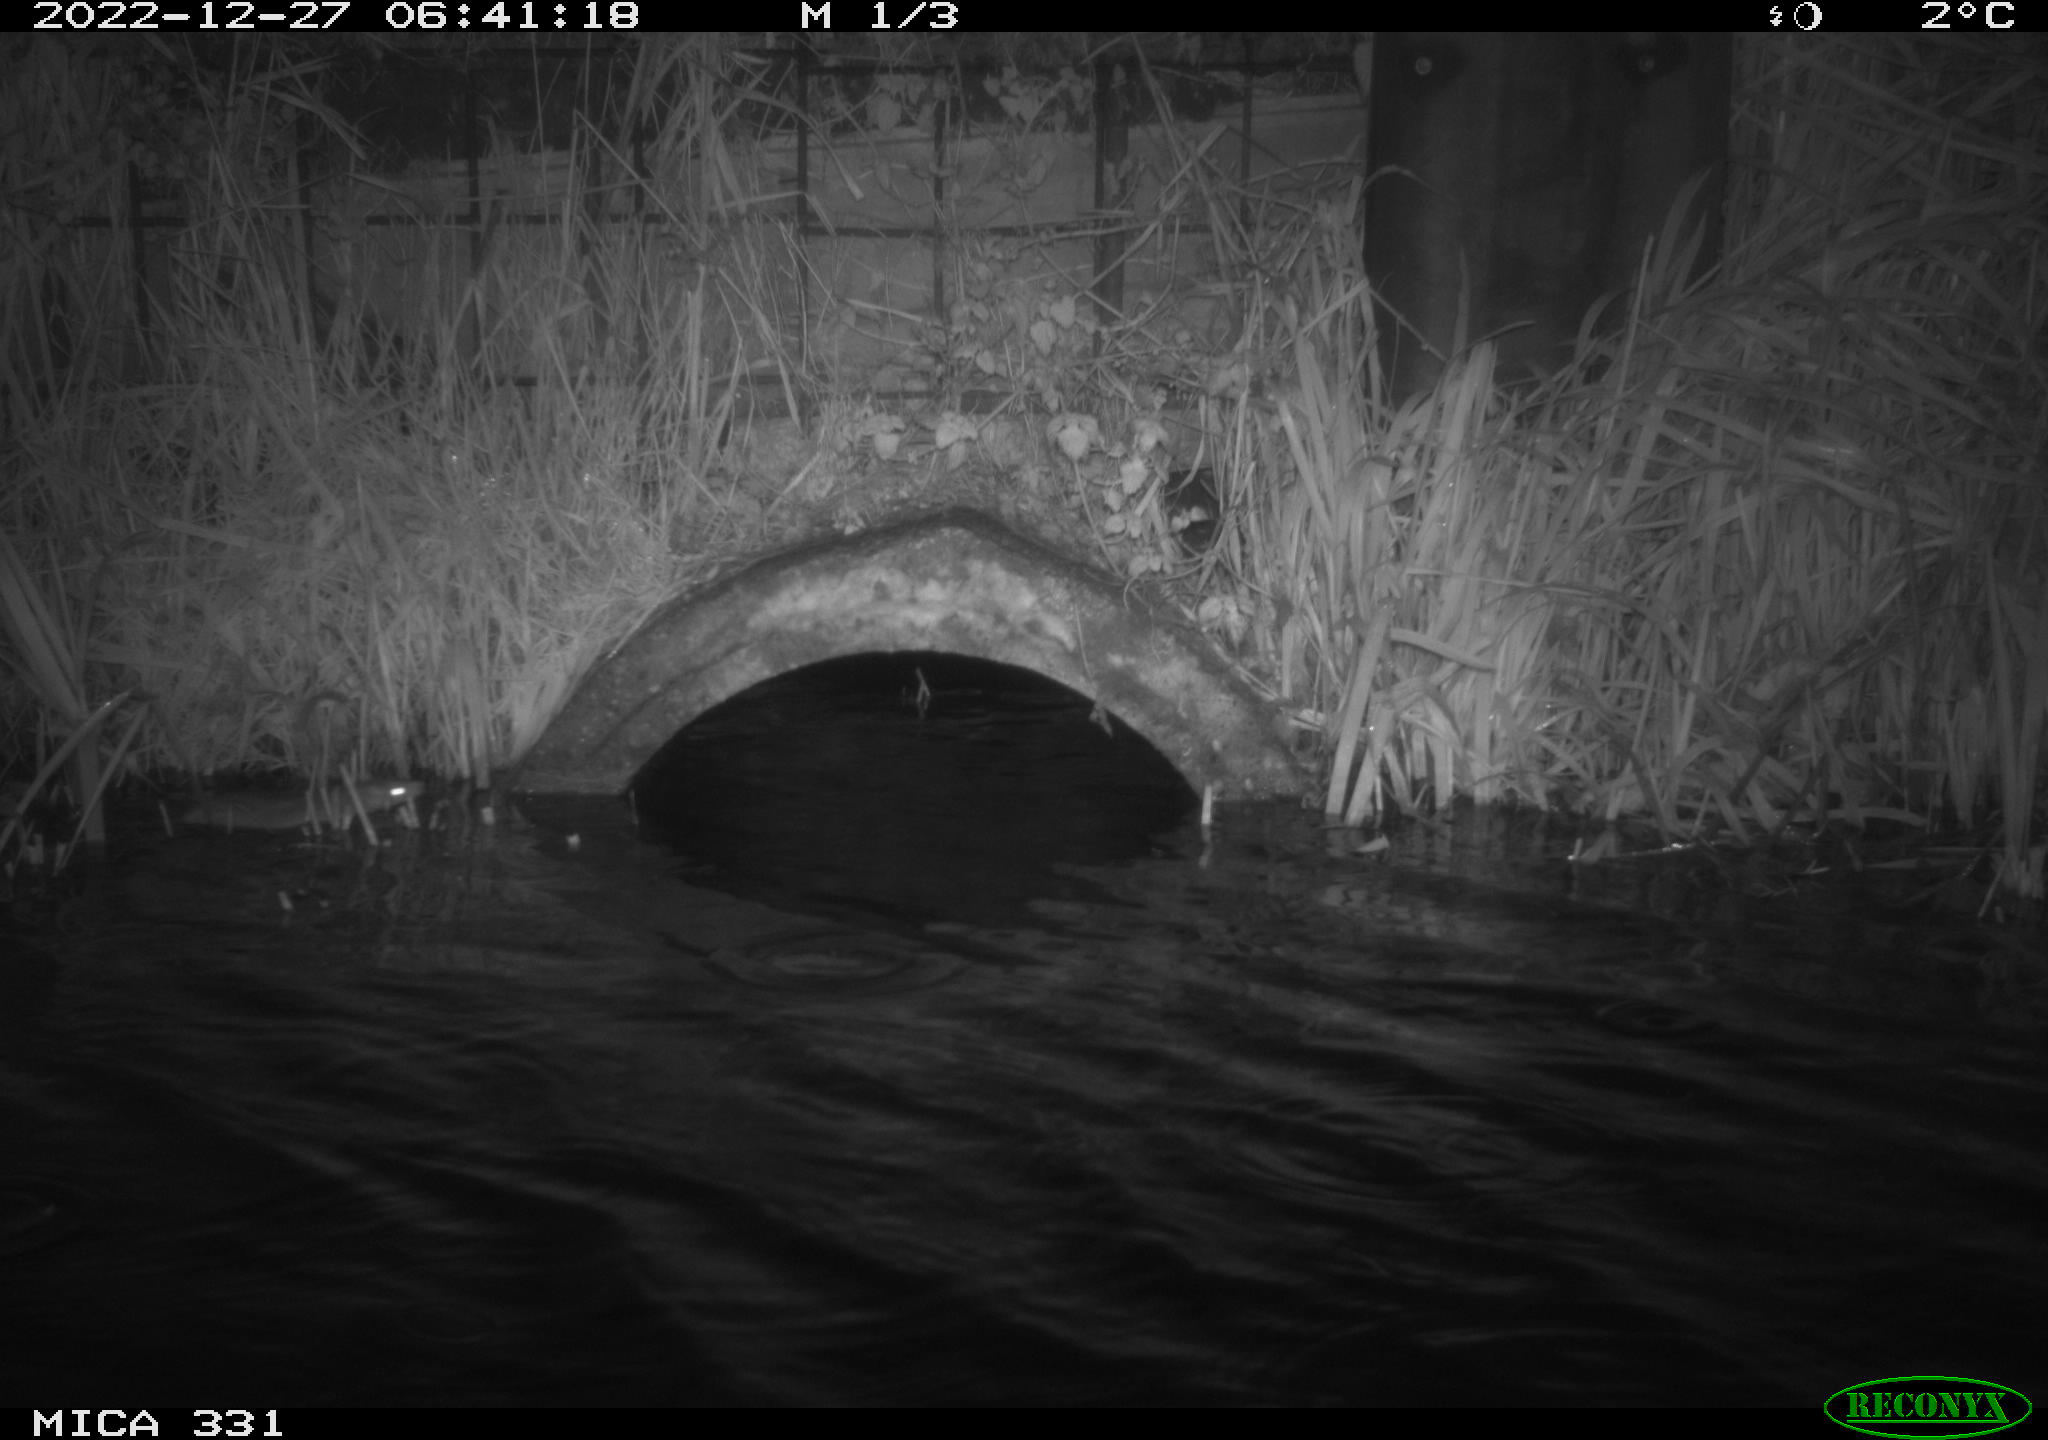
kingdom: Animalia
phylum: Chordata
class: Mammalia
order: Rodentia
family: Muridae
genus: Rattus
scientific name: Rattus norvegicus
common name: Brown rat
